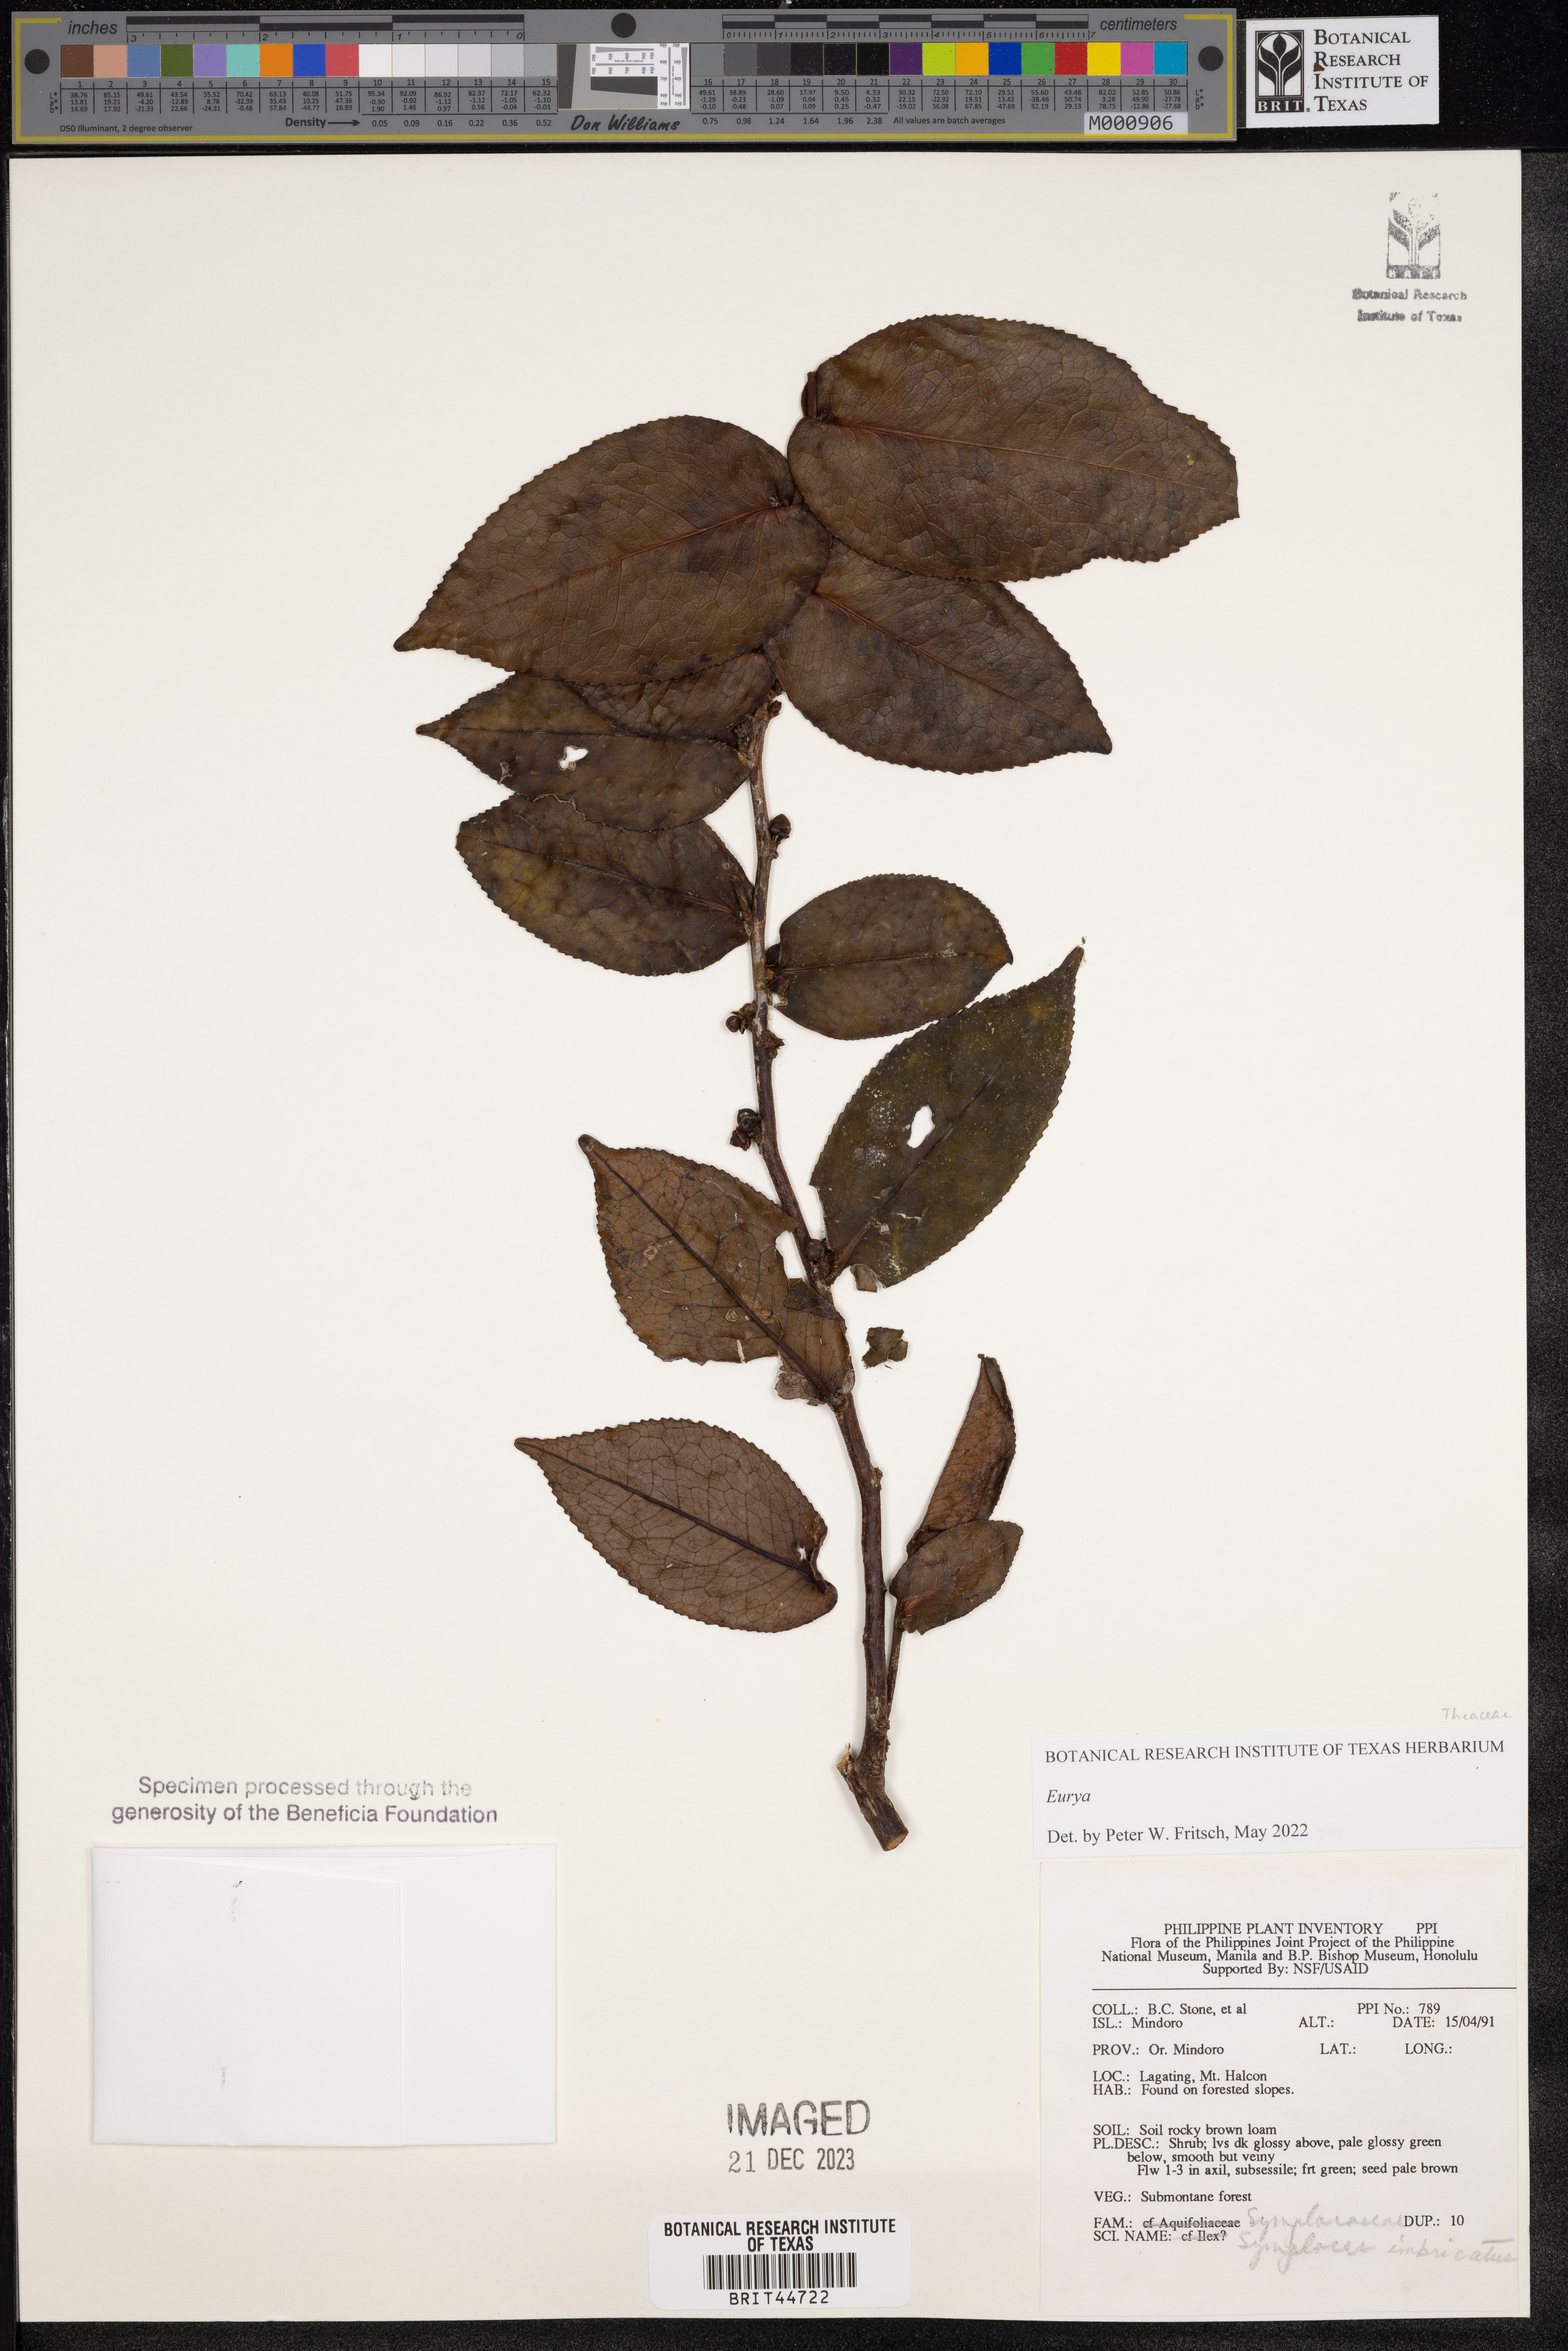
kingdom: Plantae
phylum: Tracheophyta
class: Magnoliopsida
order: Ericales
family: Symplocaceae
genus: Symplocos
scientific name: Symplocos imbricata
